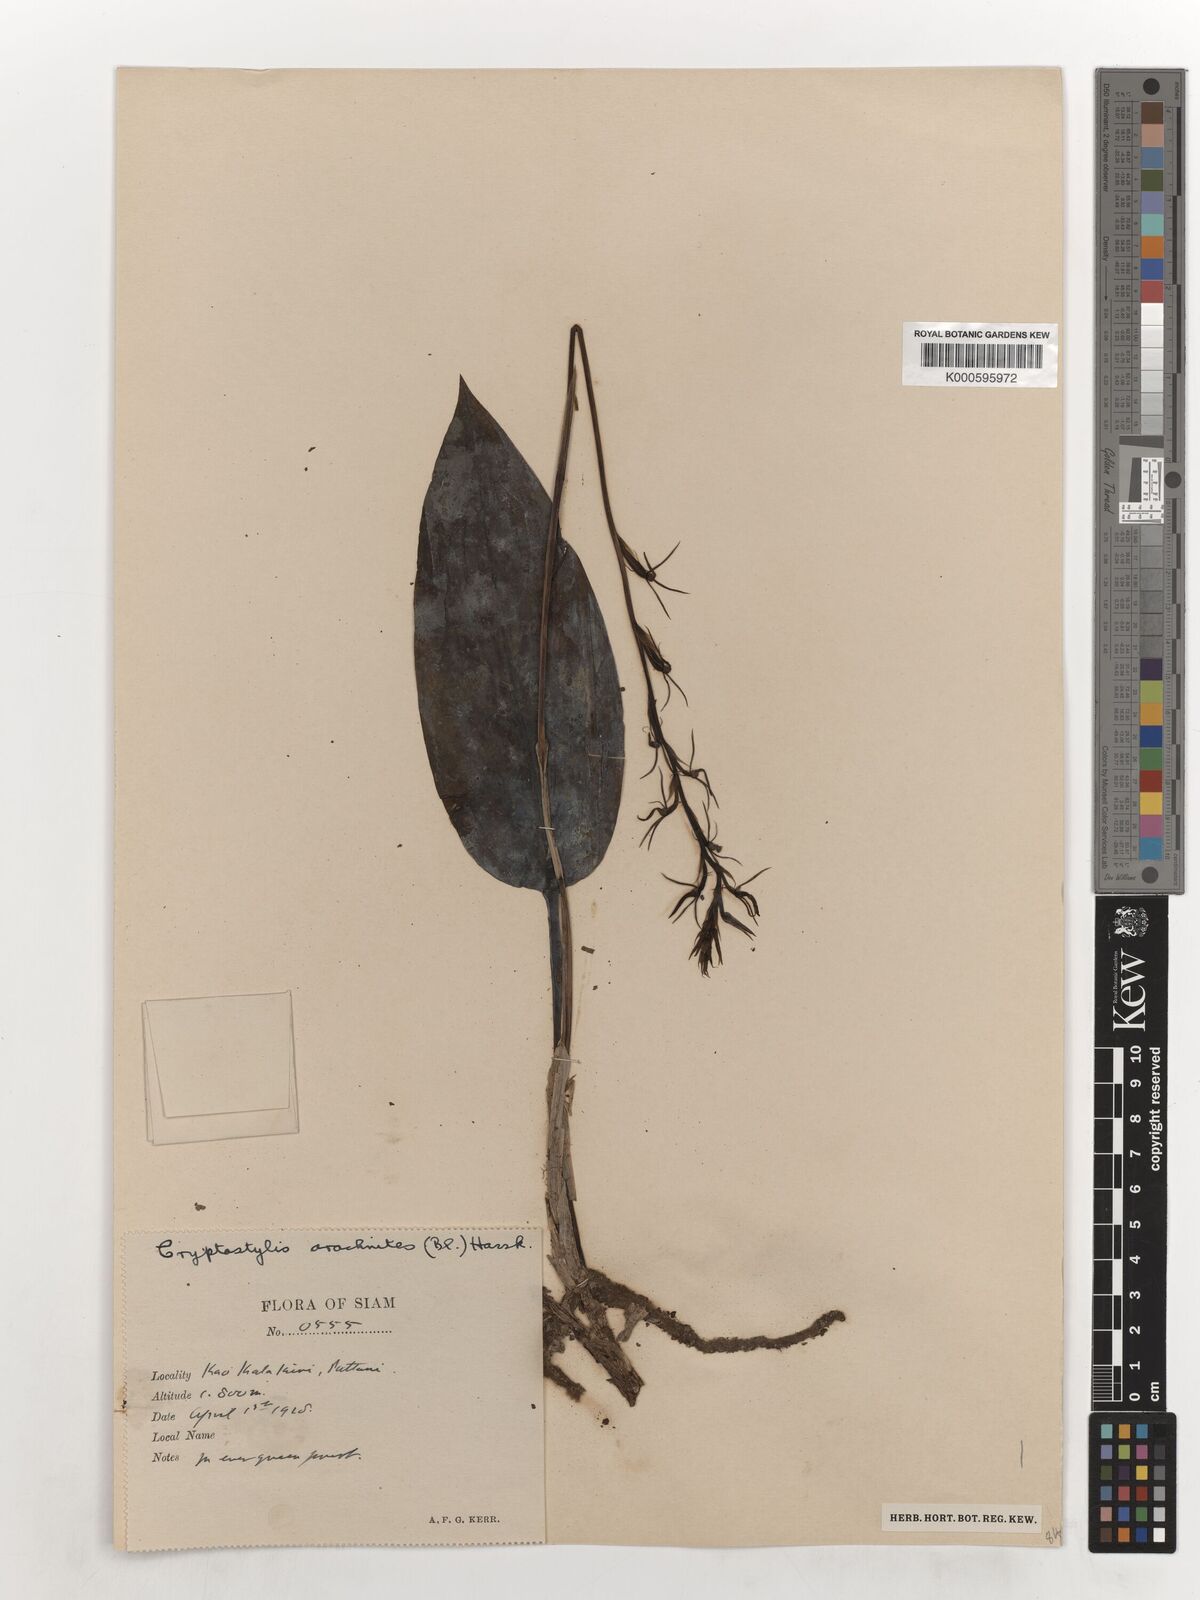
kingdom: Plantae
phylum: Tracheophyta
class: Liliopsida
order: Asparagales
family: Orchidaceae
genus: Cryptostylis
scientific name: Cryptostylis arachnites
